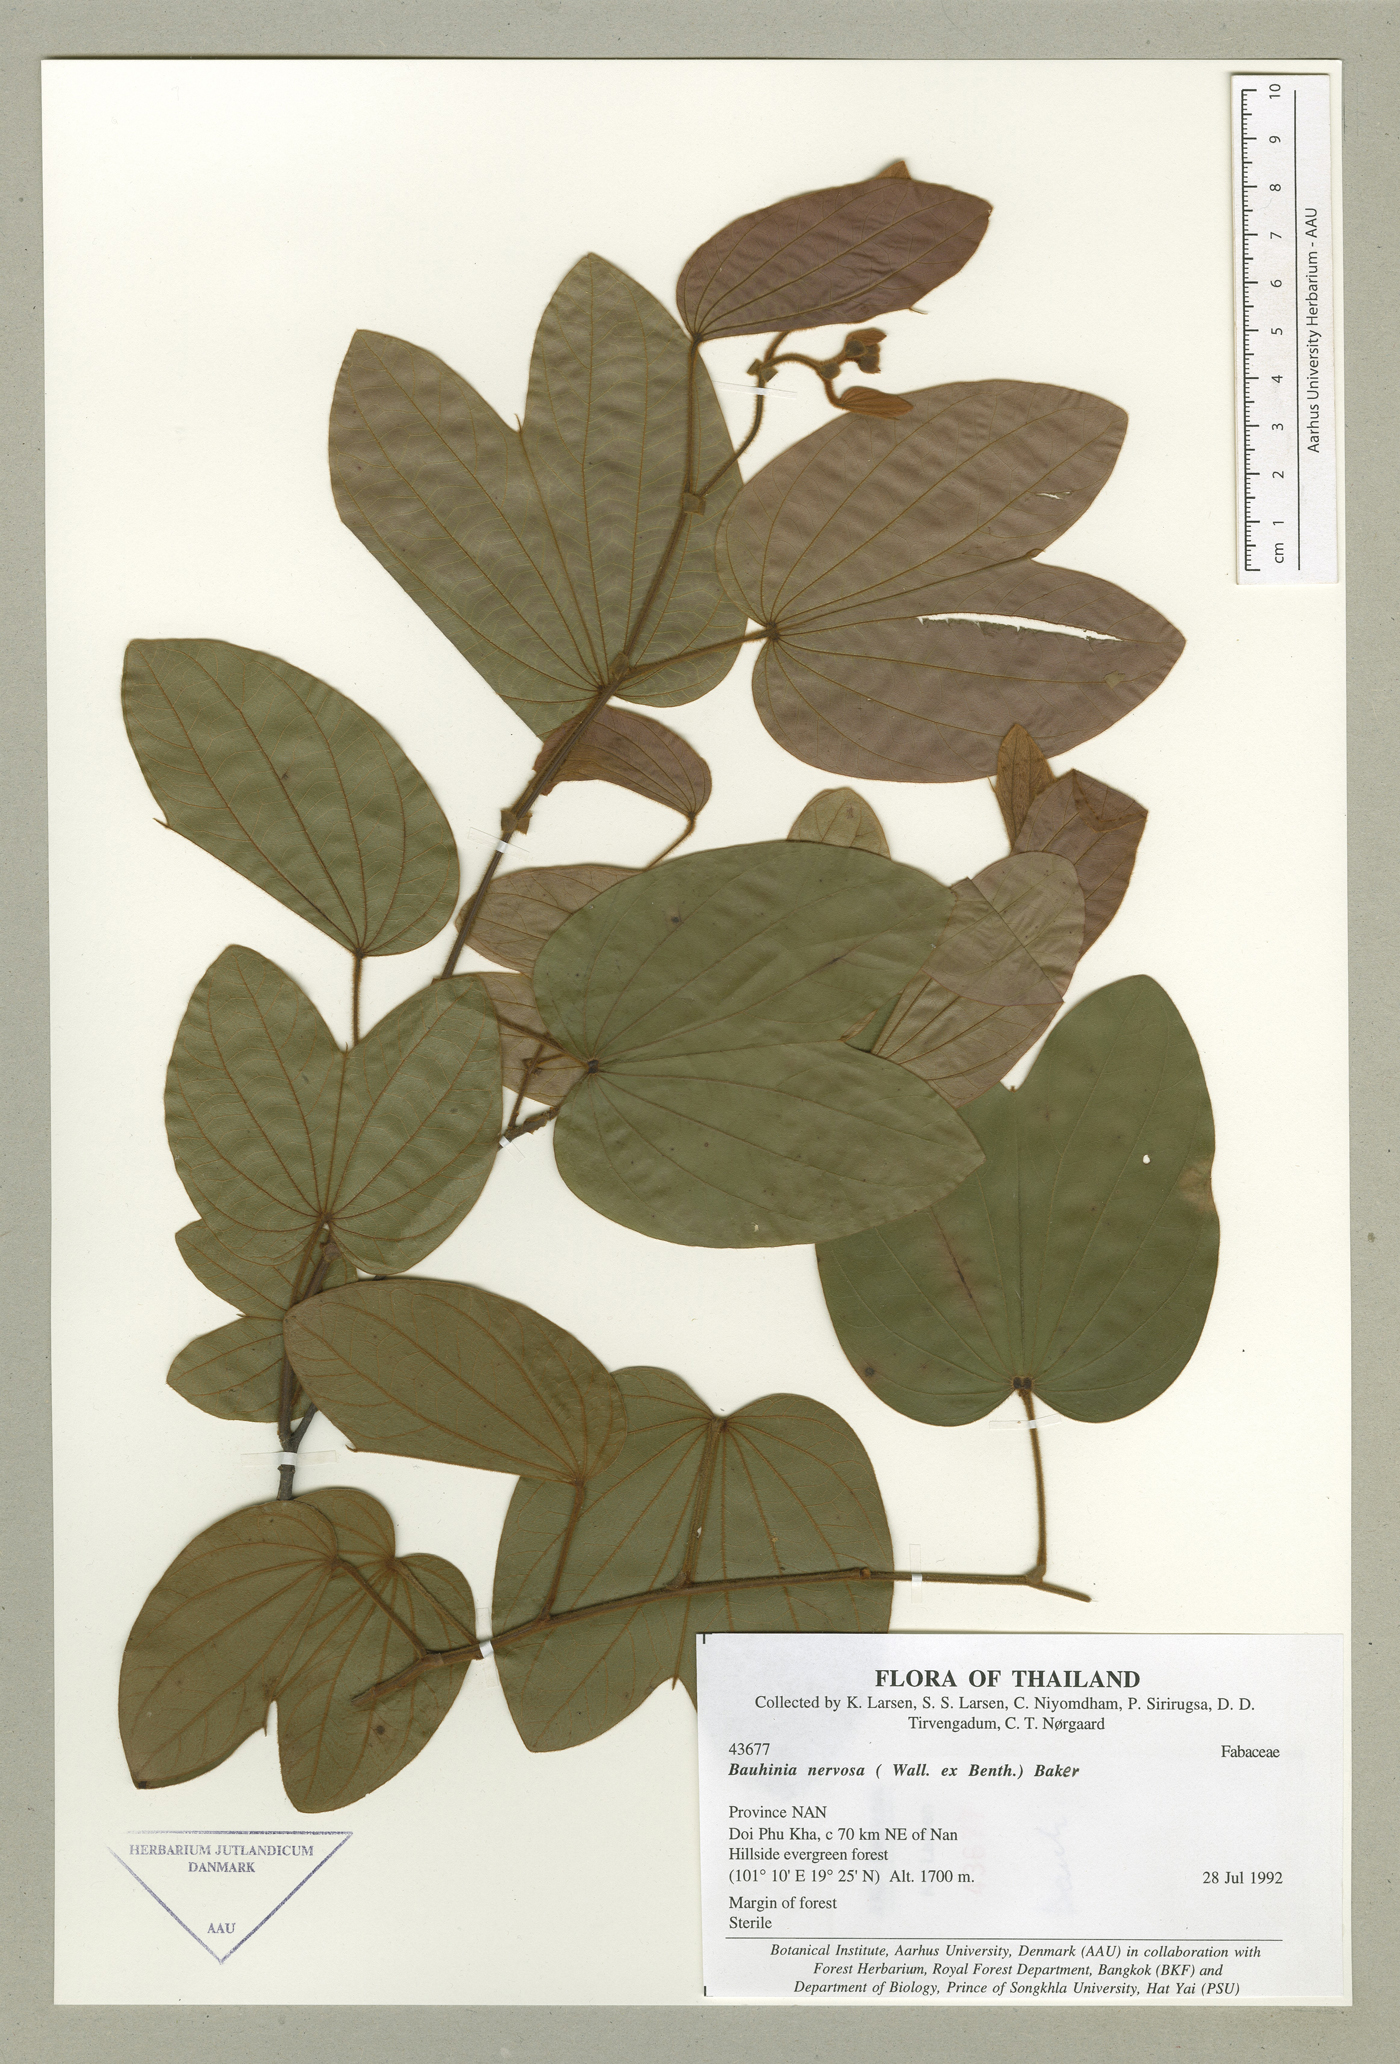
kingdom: Plantae
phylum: Tracheophyta
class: Magnoliopsida
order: Fabales
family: Fabaceae
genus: Bauhinia
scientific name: Bauhinia nervosa
